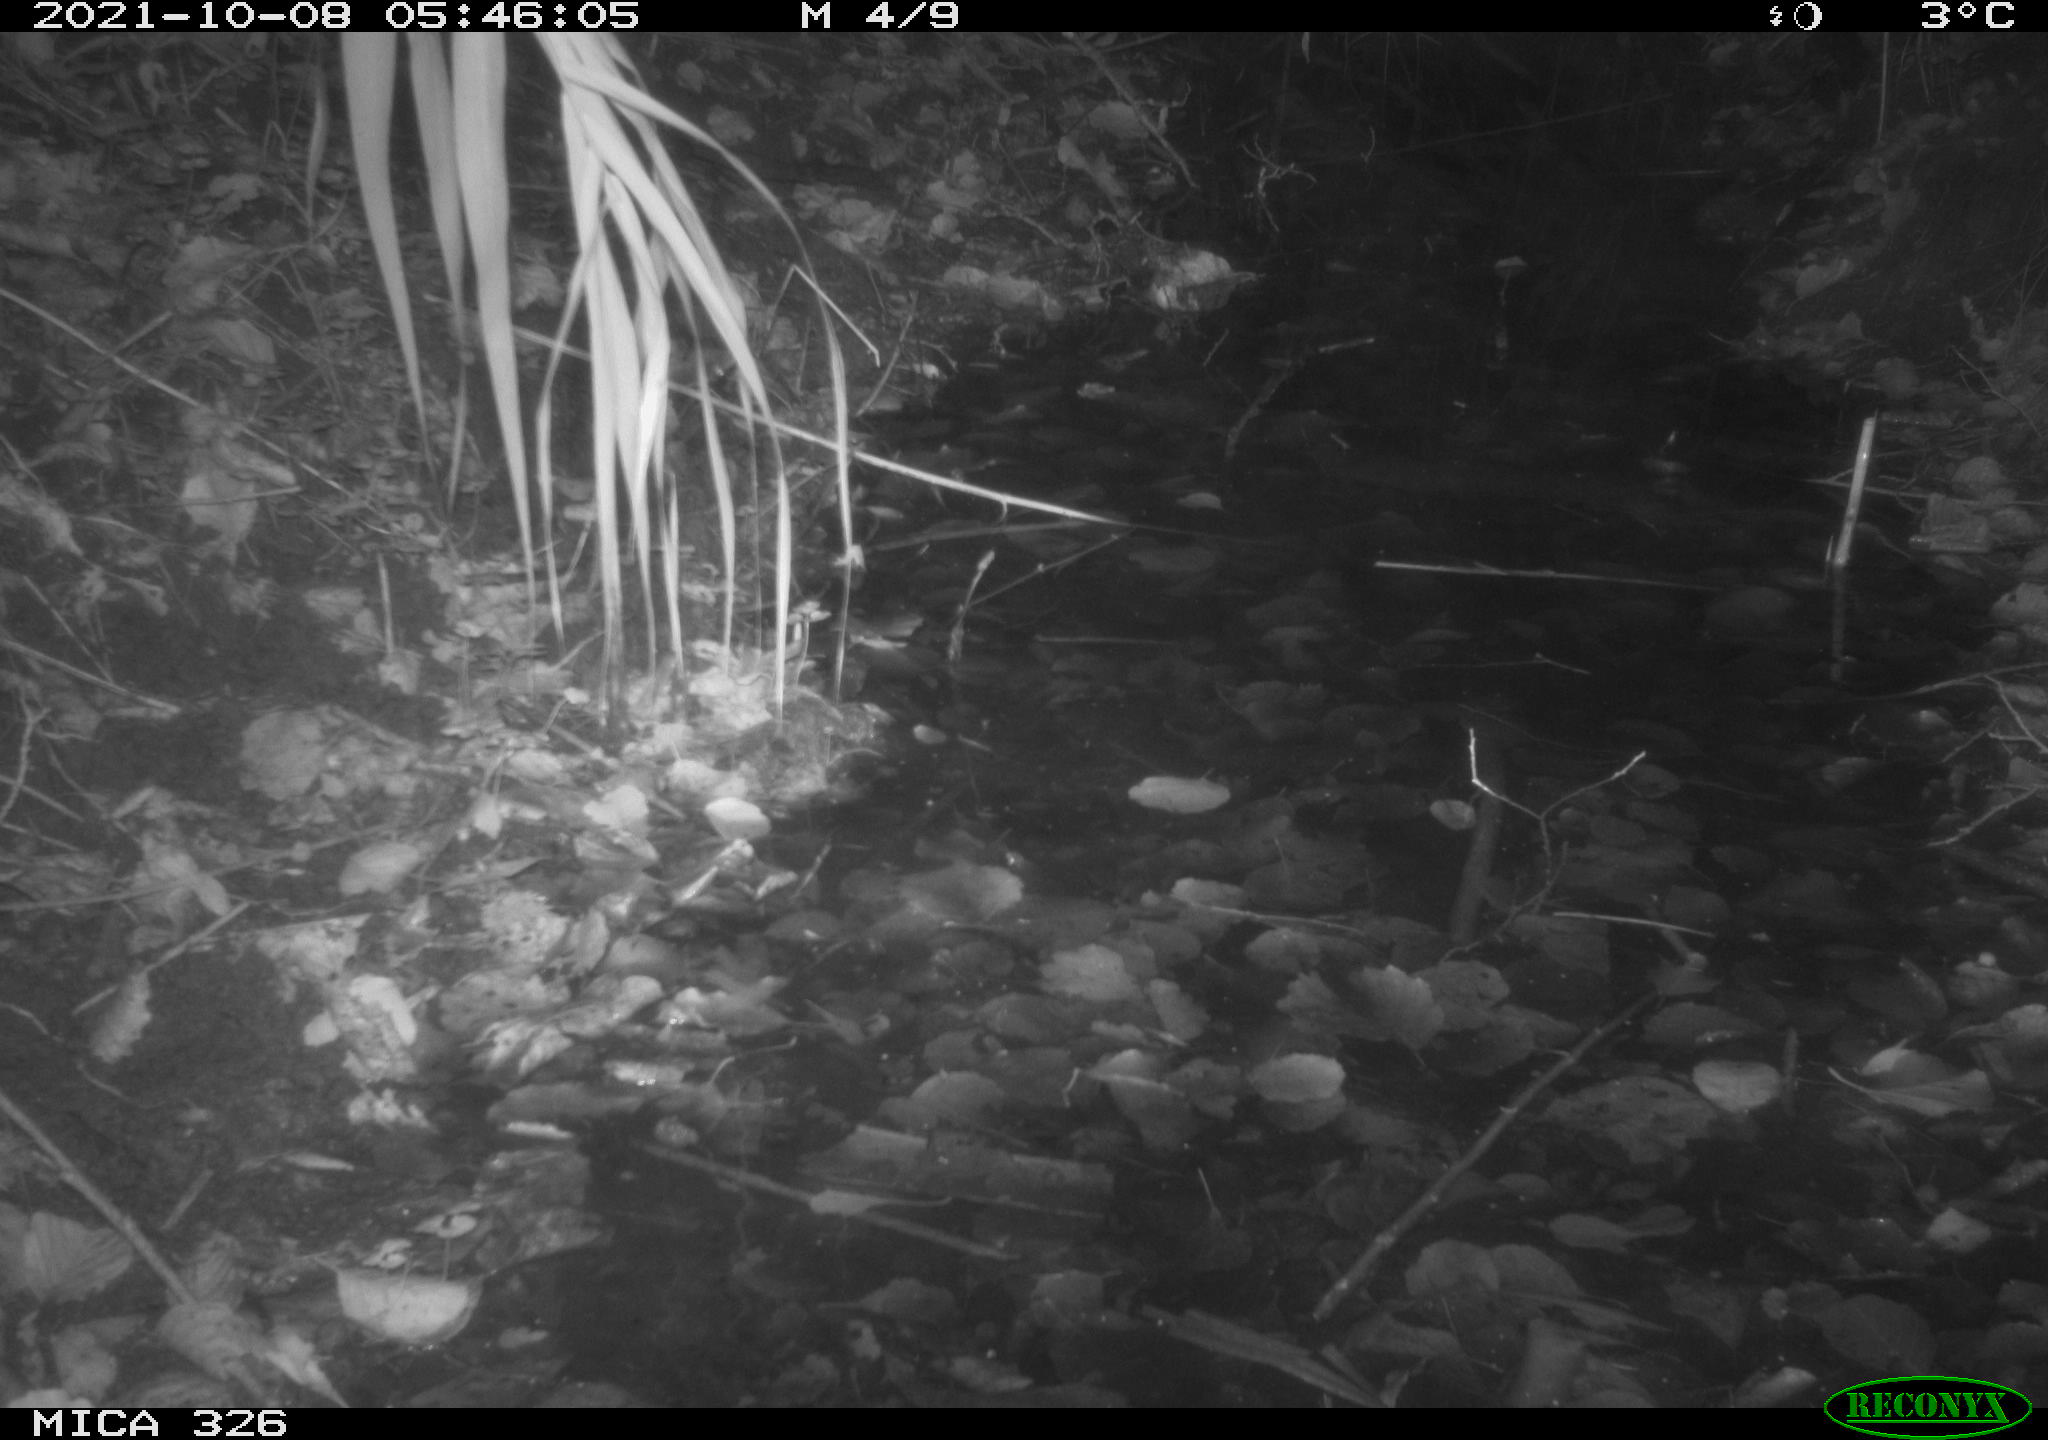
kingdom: Animalia
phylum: Chordata
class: Mammalia
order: Rodentia
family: Muridae
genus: Rattus
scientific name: Rattus norvegicus
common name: Brown rat
